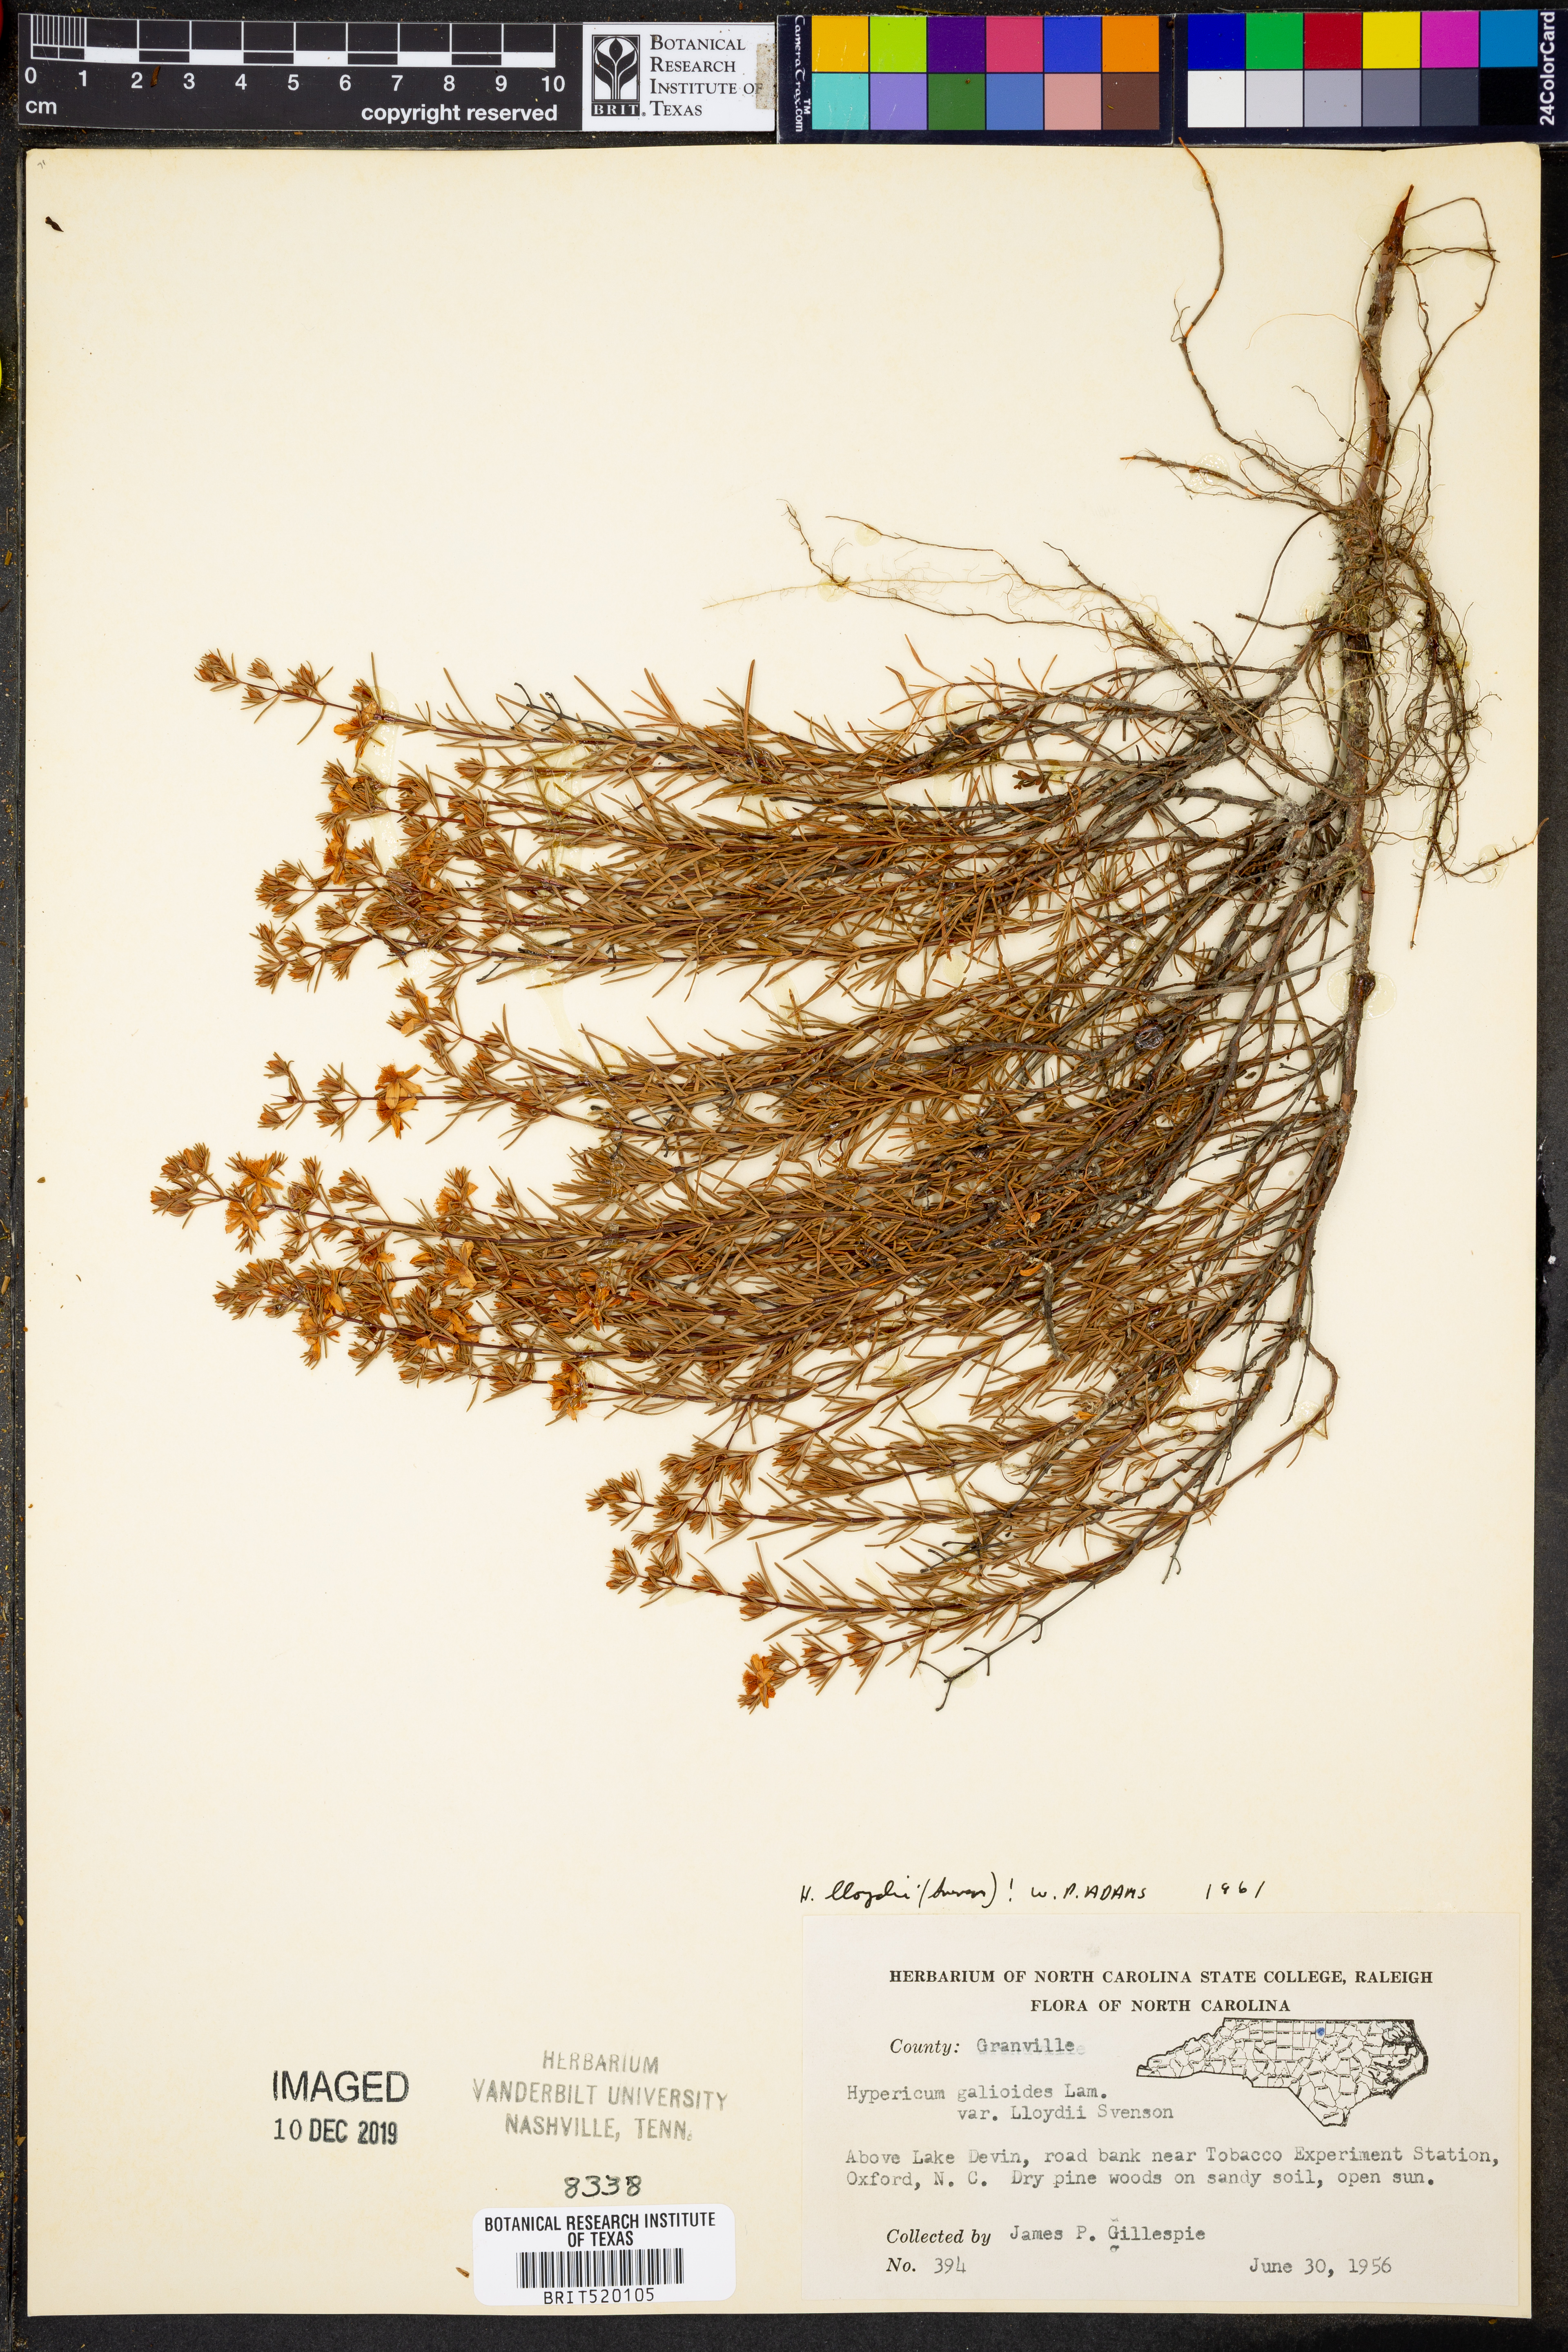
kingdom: Plantae
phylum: Tracheophyta
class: Magnoliopsida
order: Malpighiales
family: Hypericaceae
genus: Hypericum
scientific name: Hypericum lloydii
